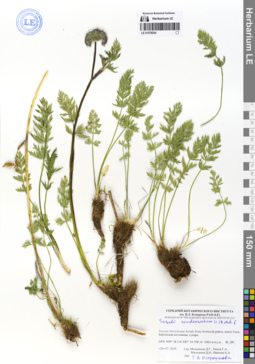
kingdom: Plantae
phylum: Tracheophyta
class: Magnoliopsida
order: Apiales
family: Apiaceae
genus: Seseli
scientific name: Seseli condensatum
